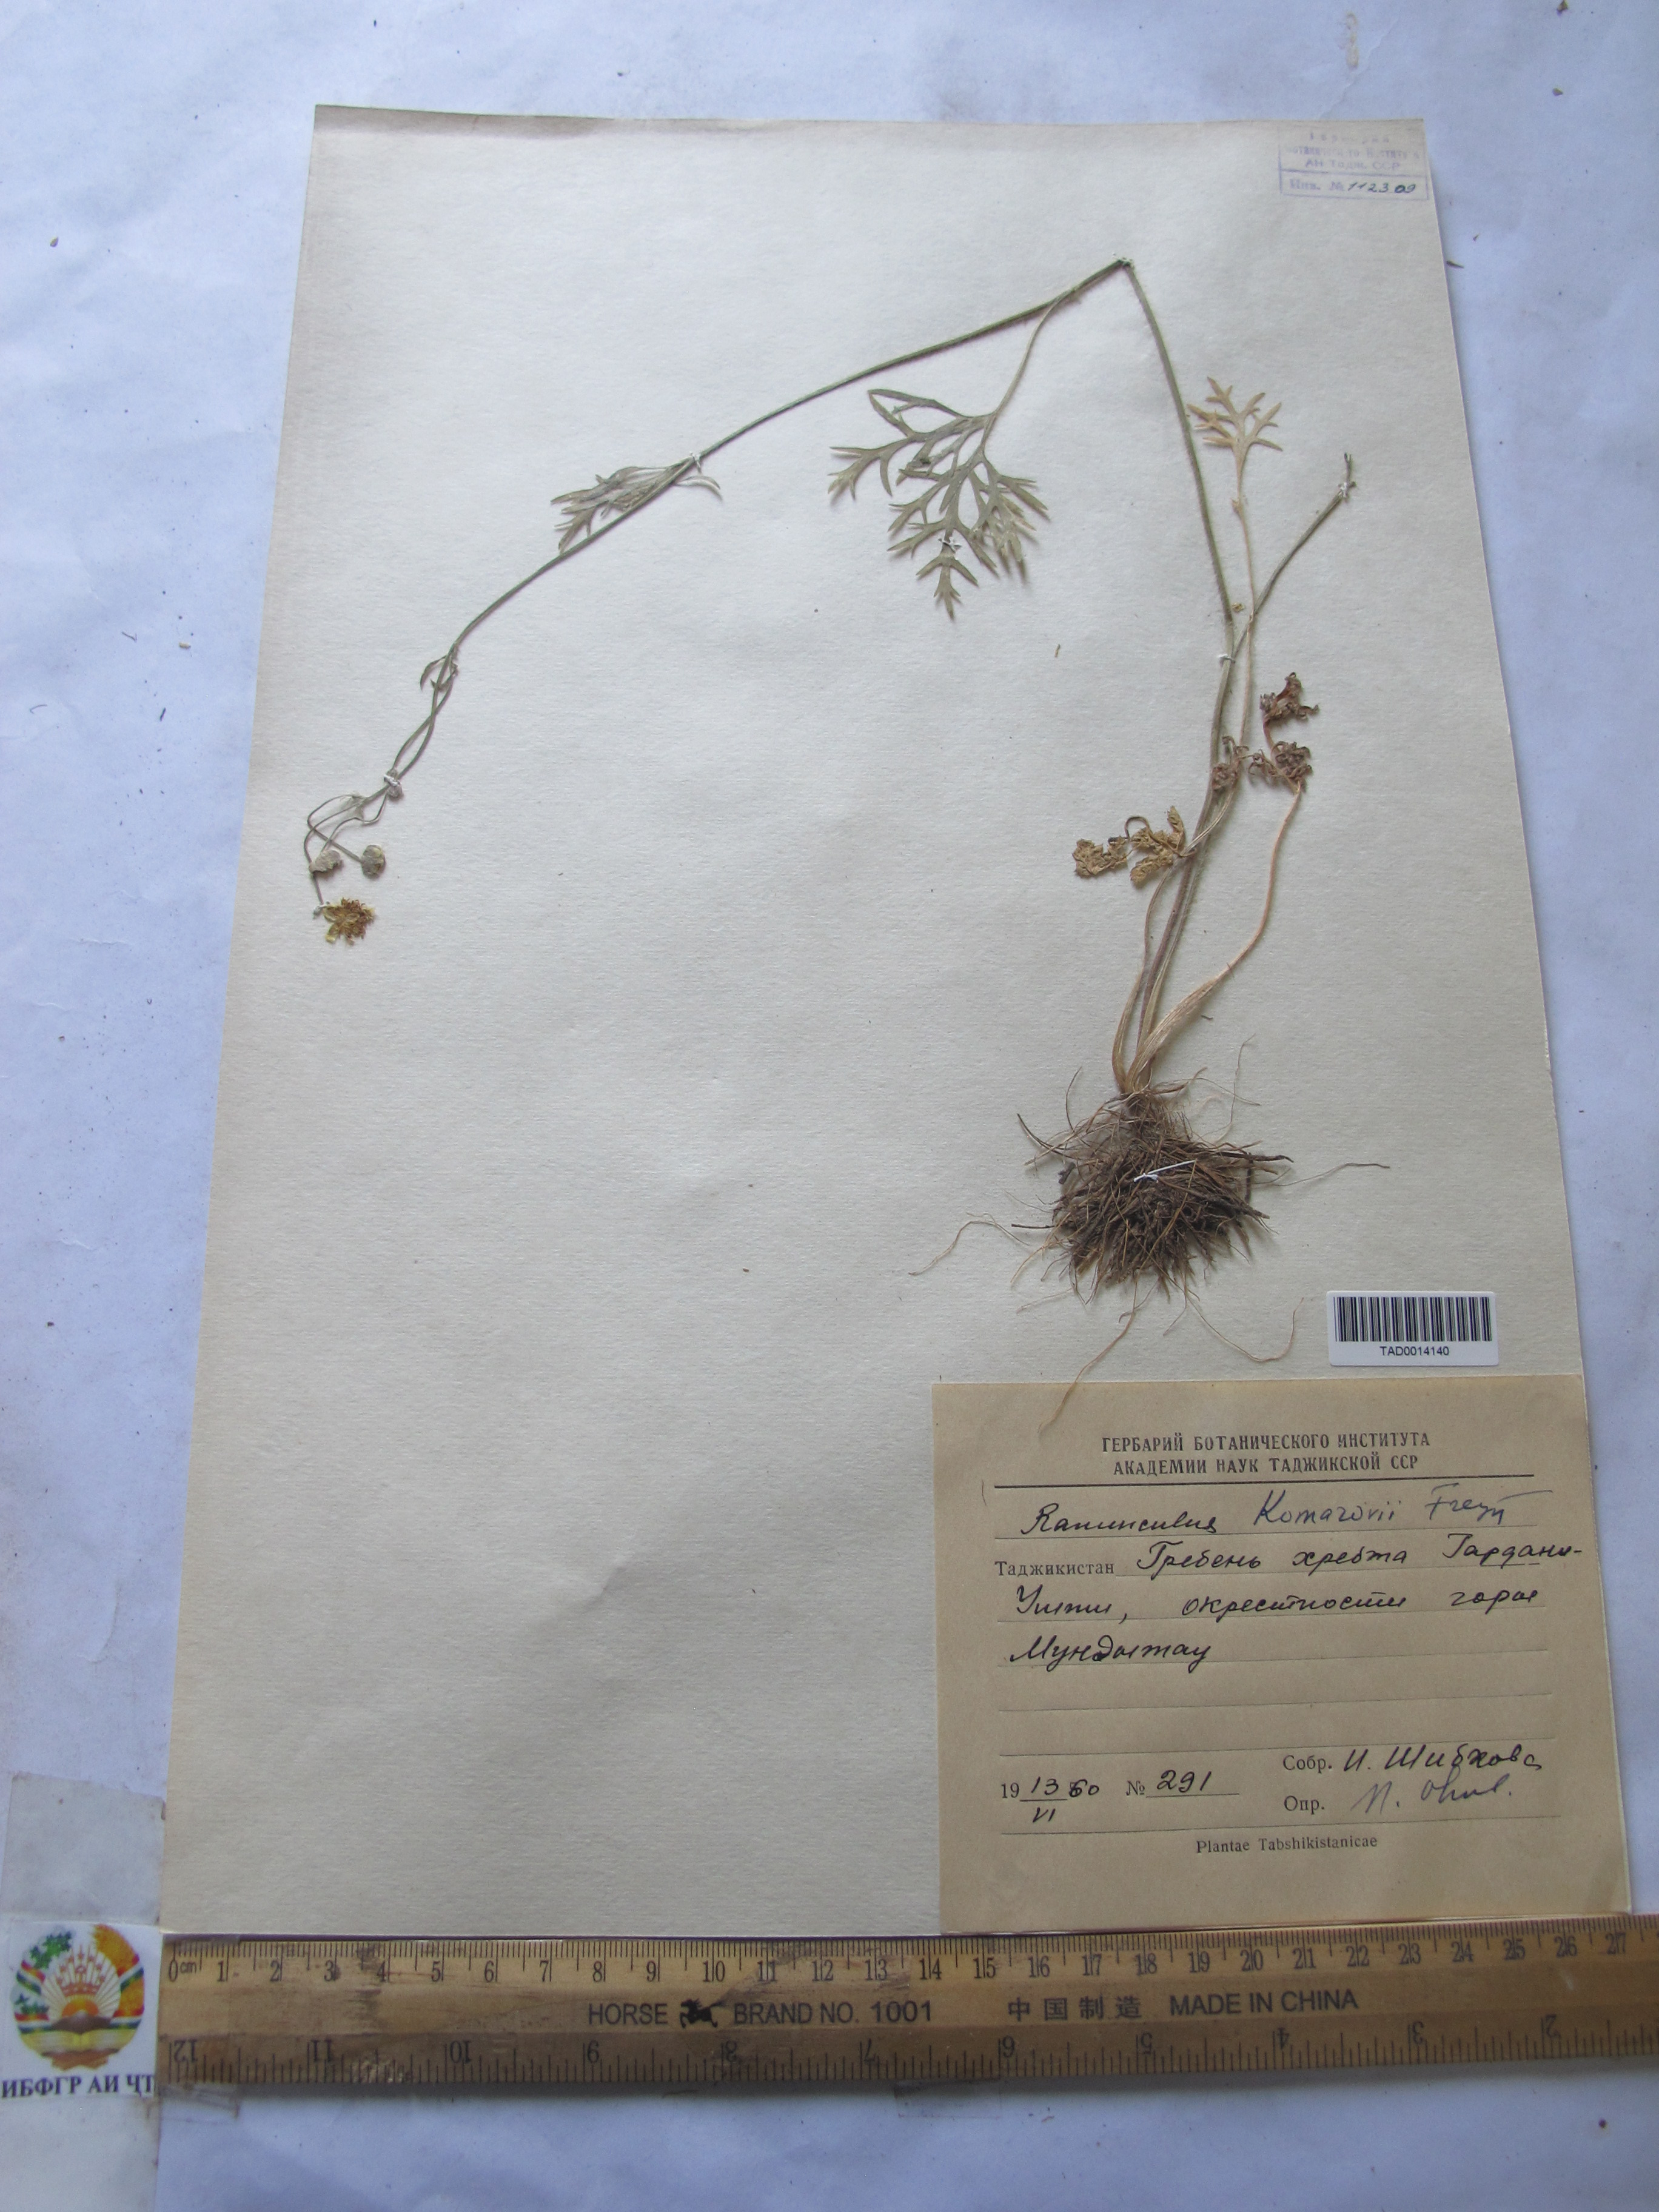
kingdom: Plantae
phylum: Tracheophyta
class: Magnoliopsida
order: Ranunculales
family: Ranunculaceae
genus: Ranunculus
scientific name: Ranunculus komarovii
